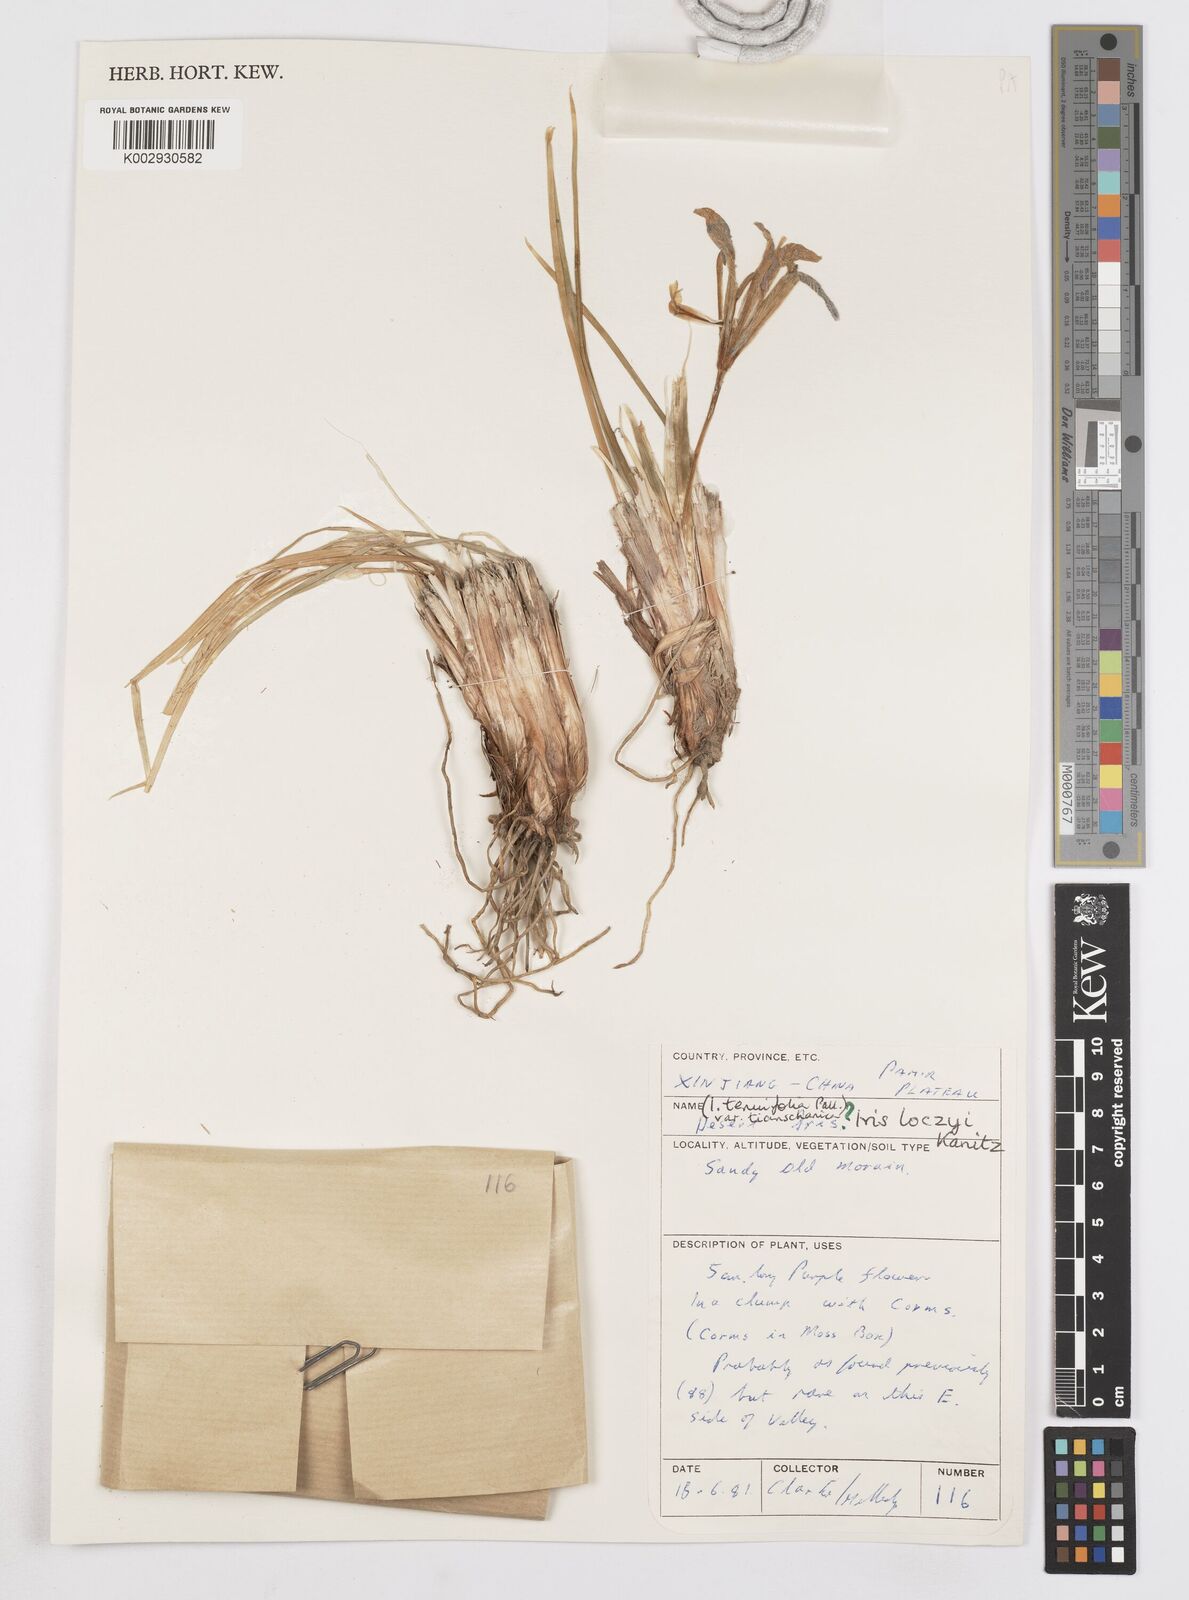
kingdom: Plantae
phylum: Tracheophyta
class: Liliopsida
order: Asparagales
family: Iridaceae
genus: Iris
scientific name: Iris loczyi
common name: Tian shan mountain iris
